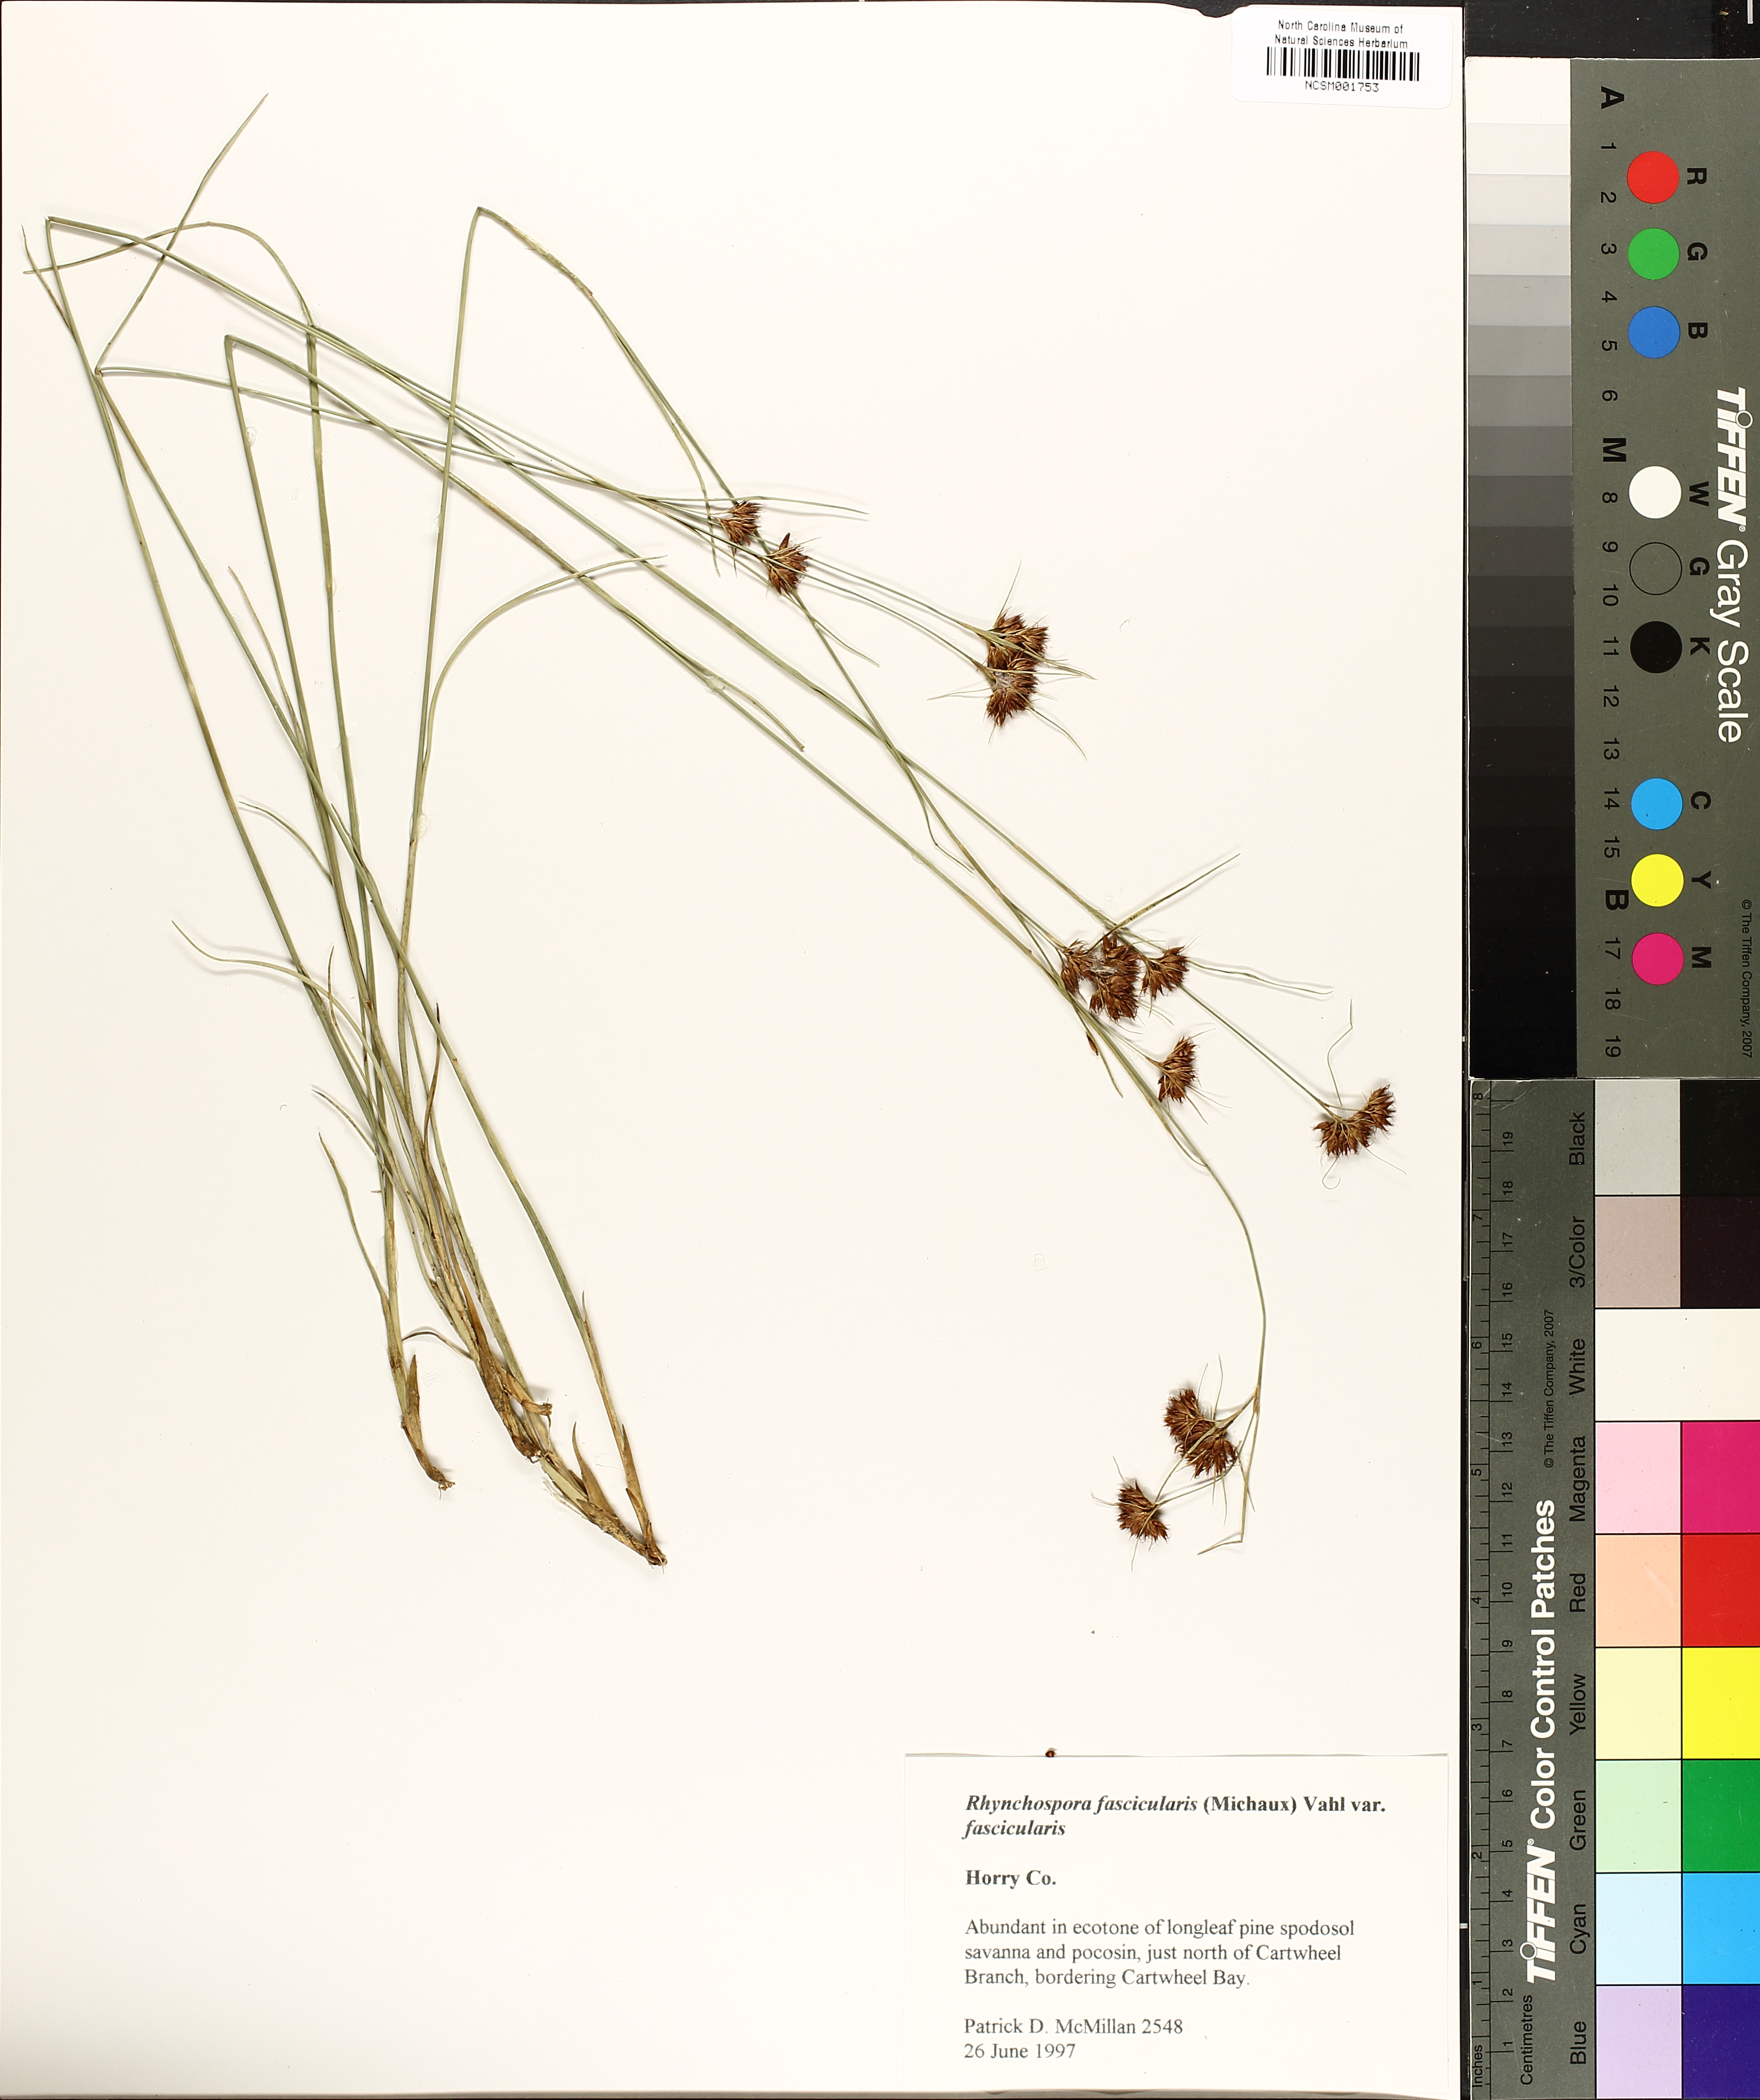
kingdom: Plantae
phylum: Tracheophyta
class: Liliopsida
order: Poales
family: Cyperaceae
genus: Rhynchospora
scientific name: Rhynchospora fascicularis
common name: Fascicled beak sedge
